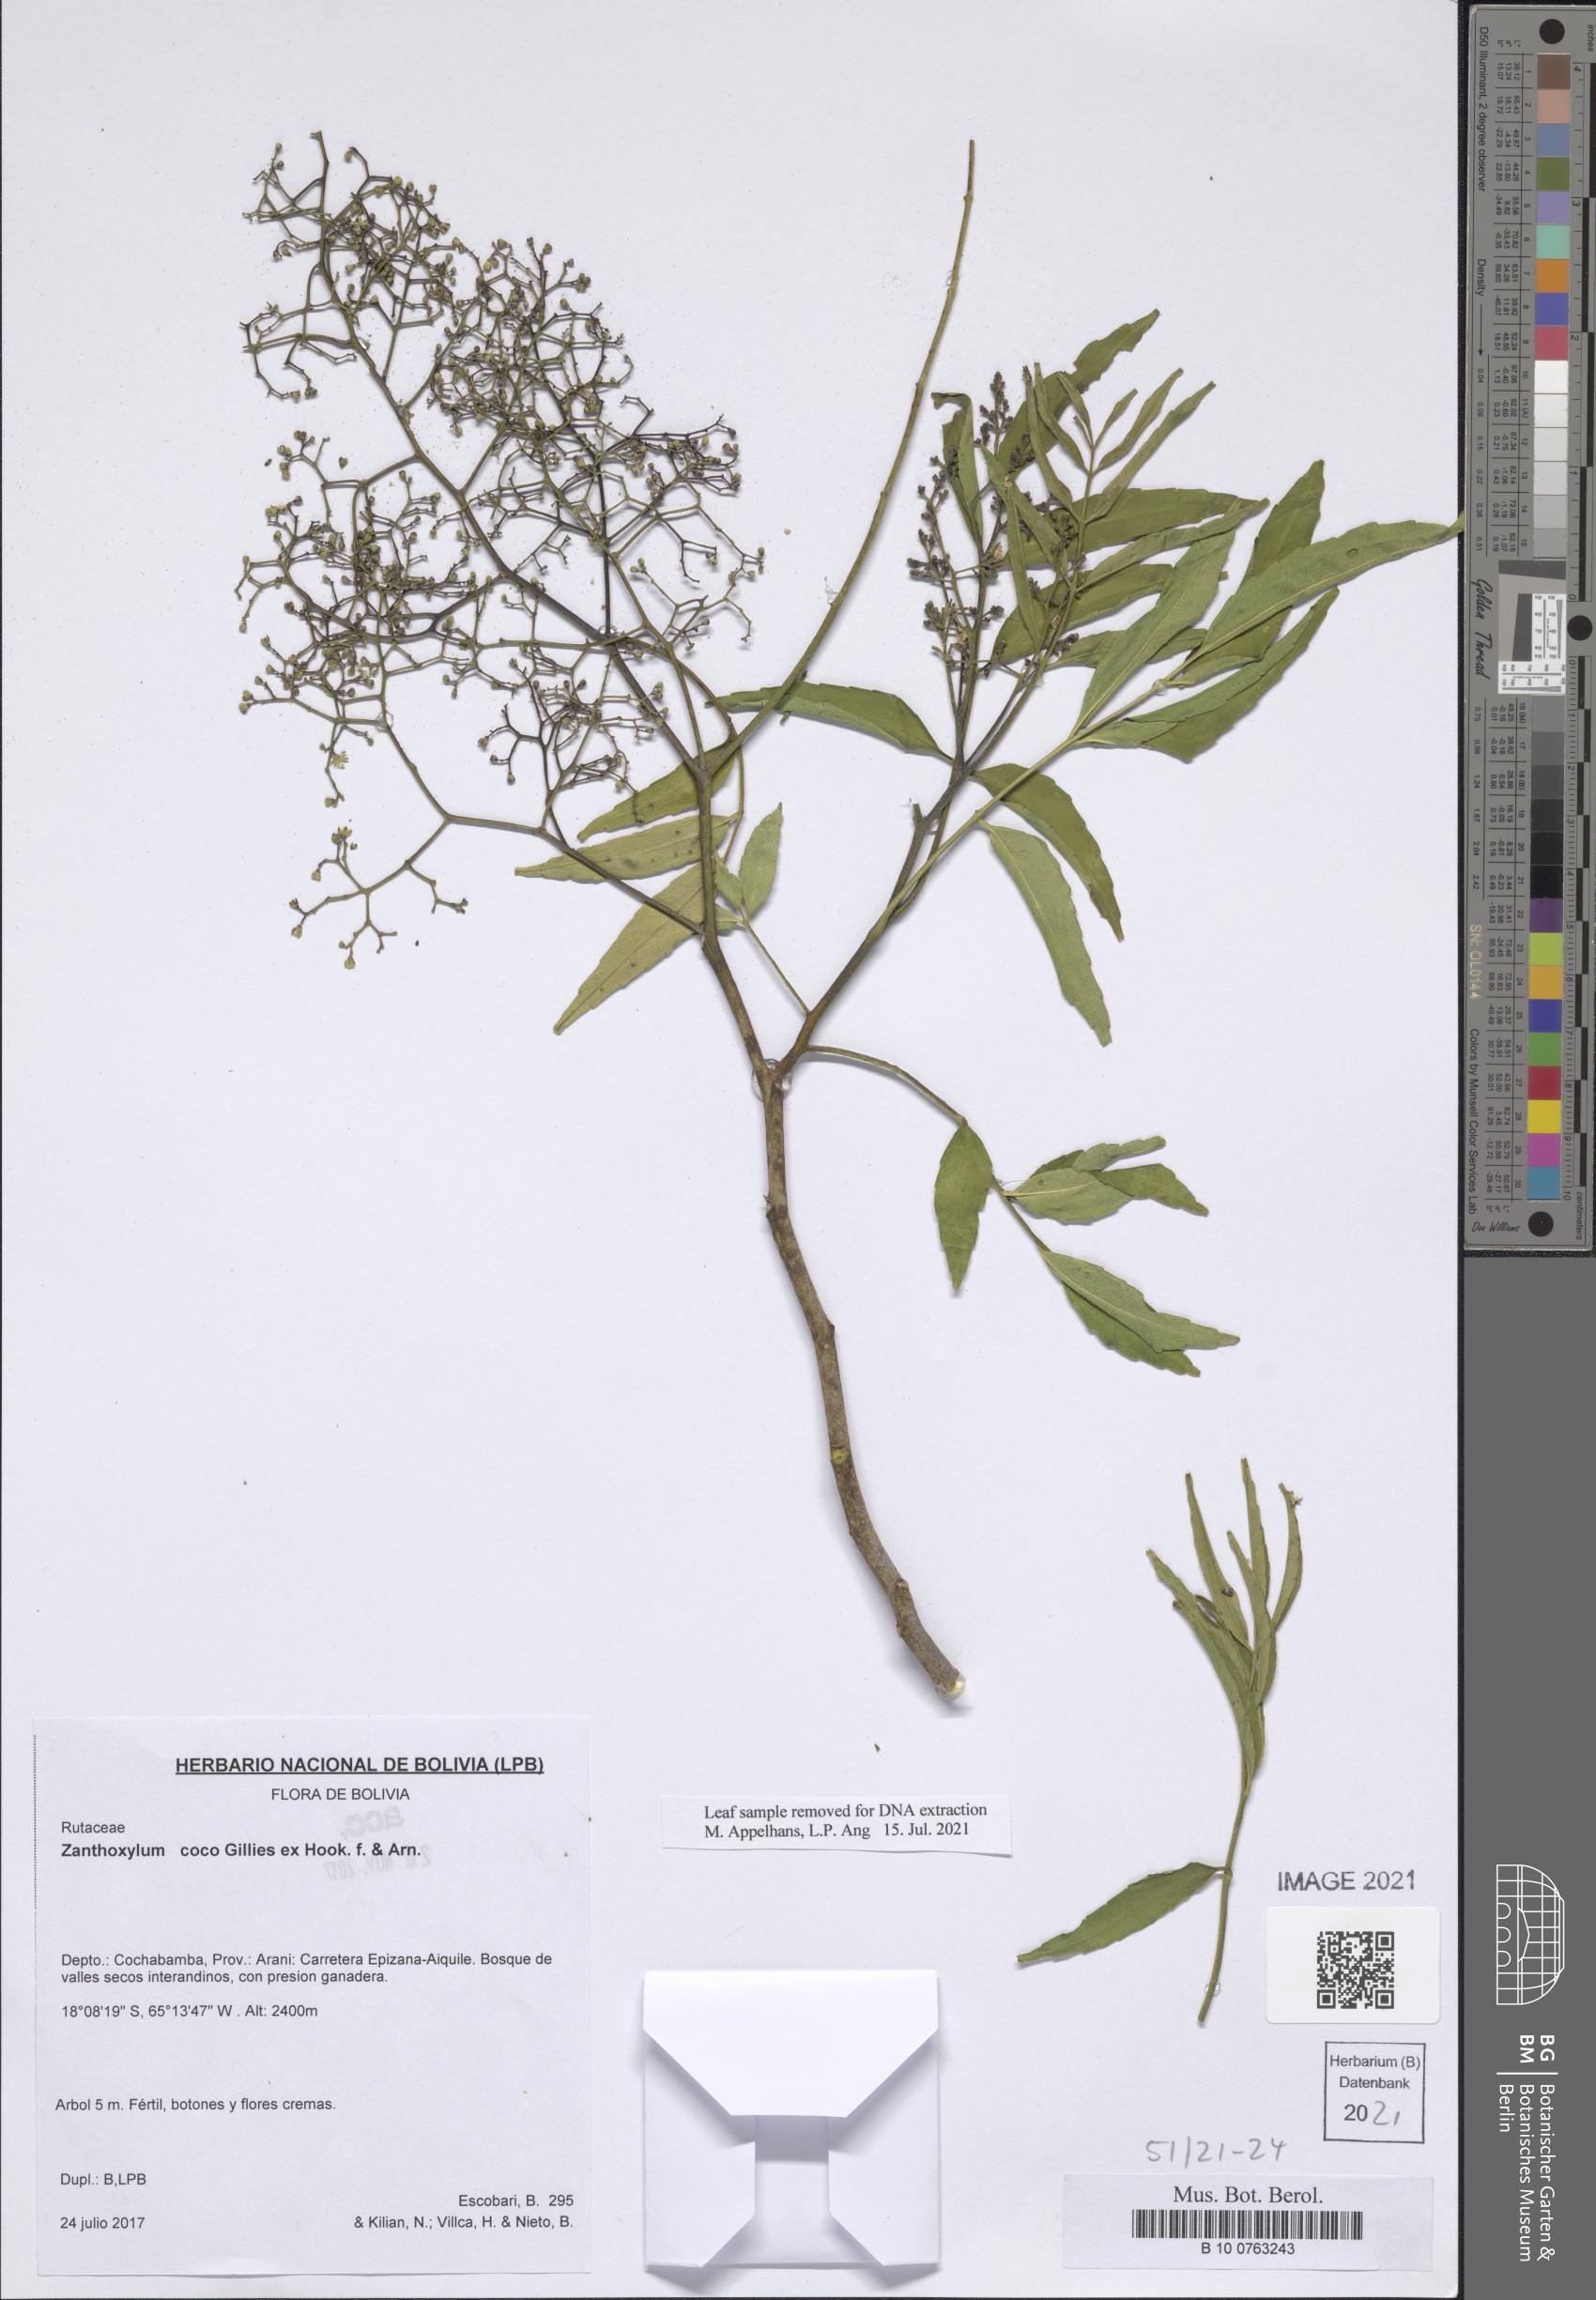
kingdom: Plantae
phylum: Tracheophyta
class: Magnoliopsida
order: Sapindales
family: Rutaceae
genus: Zanthoxylum
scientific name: Zanthoxylum coco
